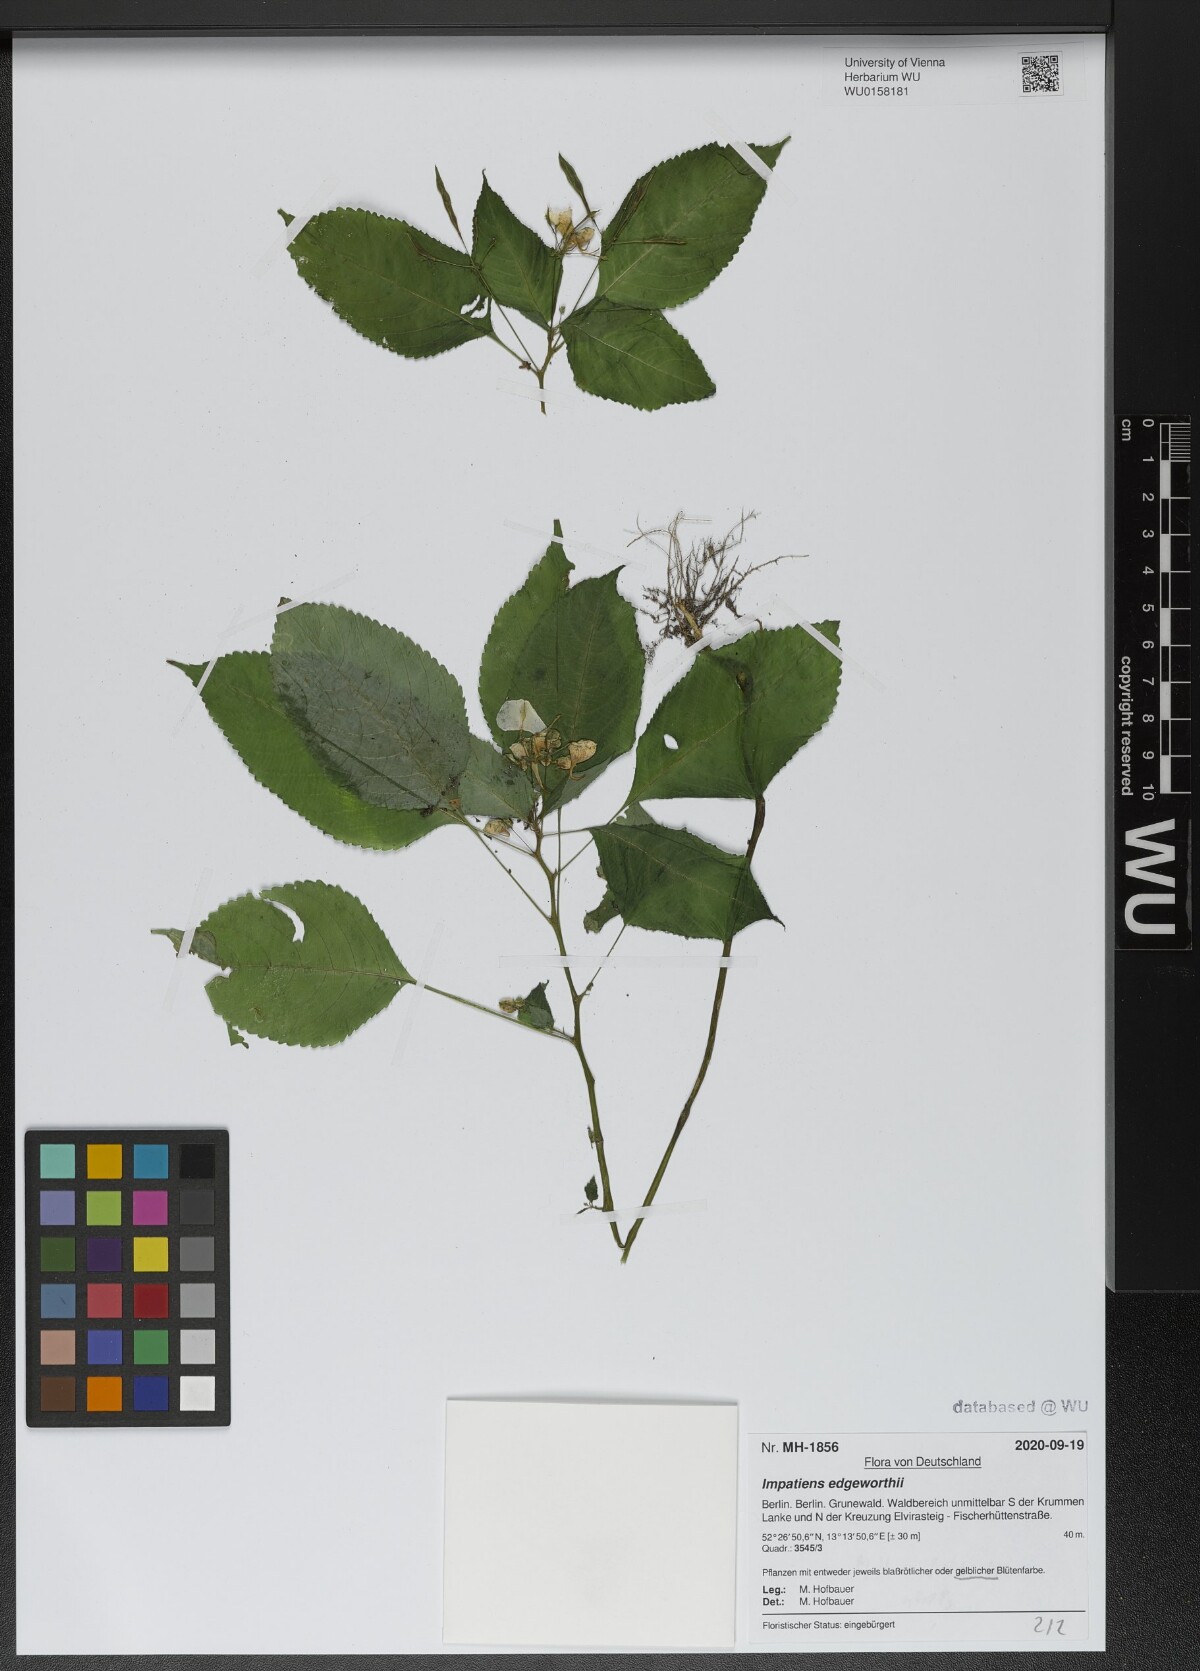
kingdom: Plantae
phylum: Tracheophyta
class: Magnoliopsida
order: Ericales
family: Balsaminaceae
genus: Impatiens
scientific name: Impatiens edgeworthii
